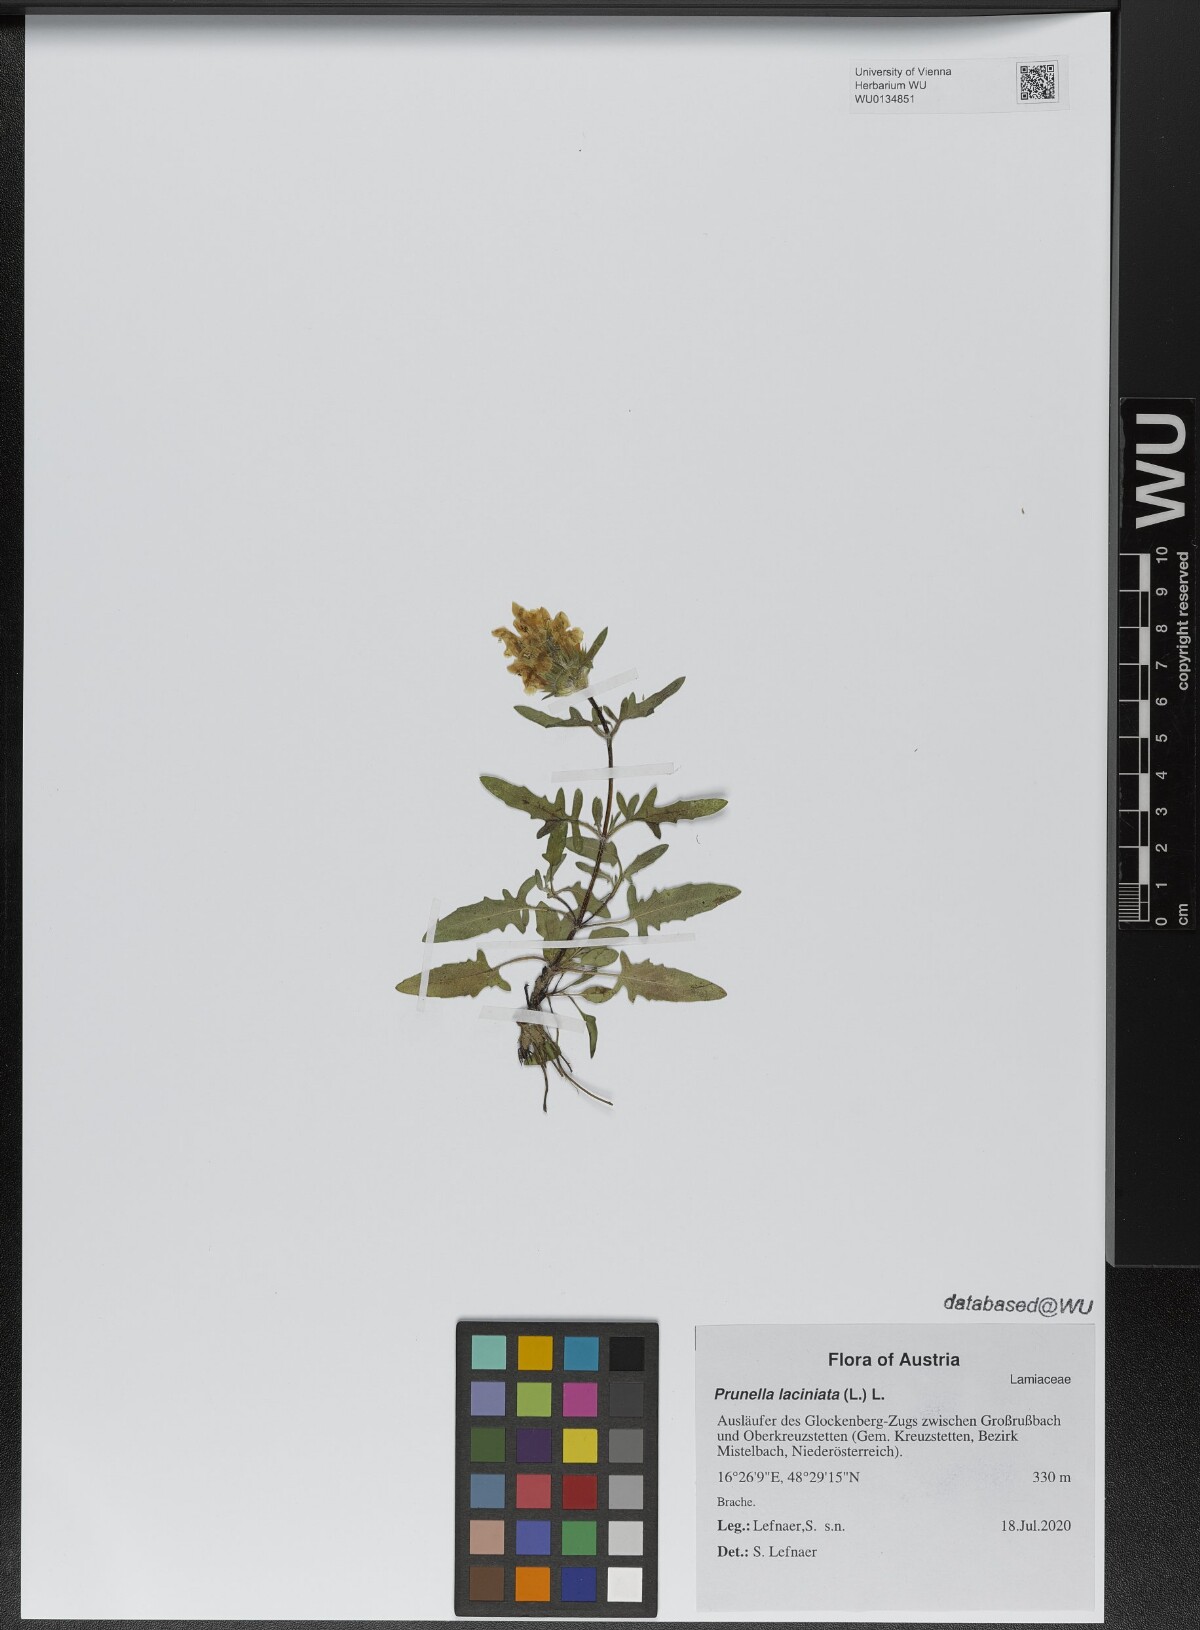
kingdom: Plantae
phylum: Tracheophyta
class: Magnoliopsida
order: Lamiales
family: Lamiaceae
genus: Prunella
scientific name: Prunella laciniata
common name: Cut-leaved selfheal
